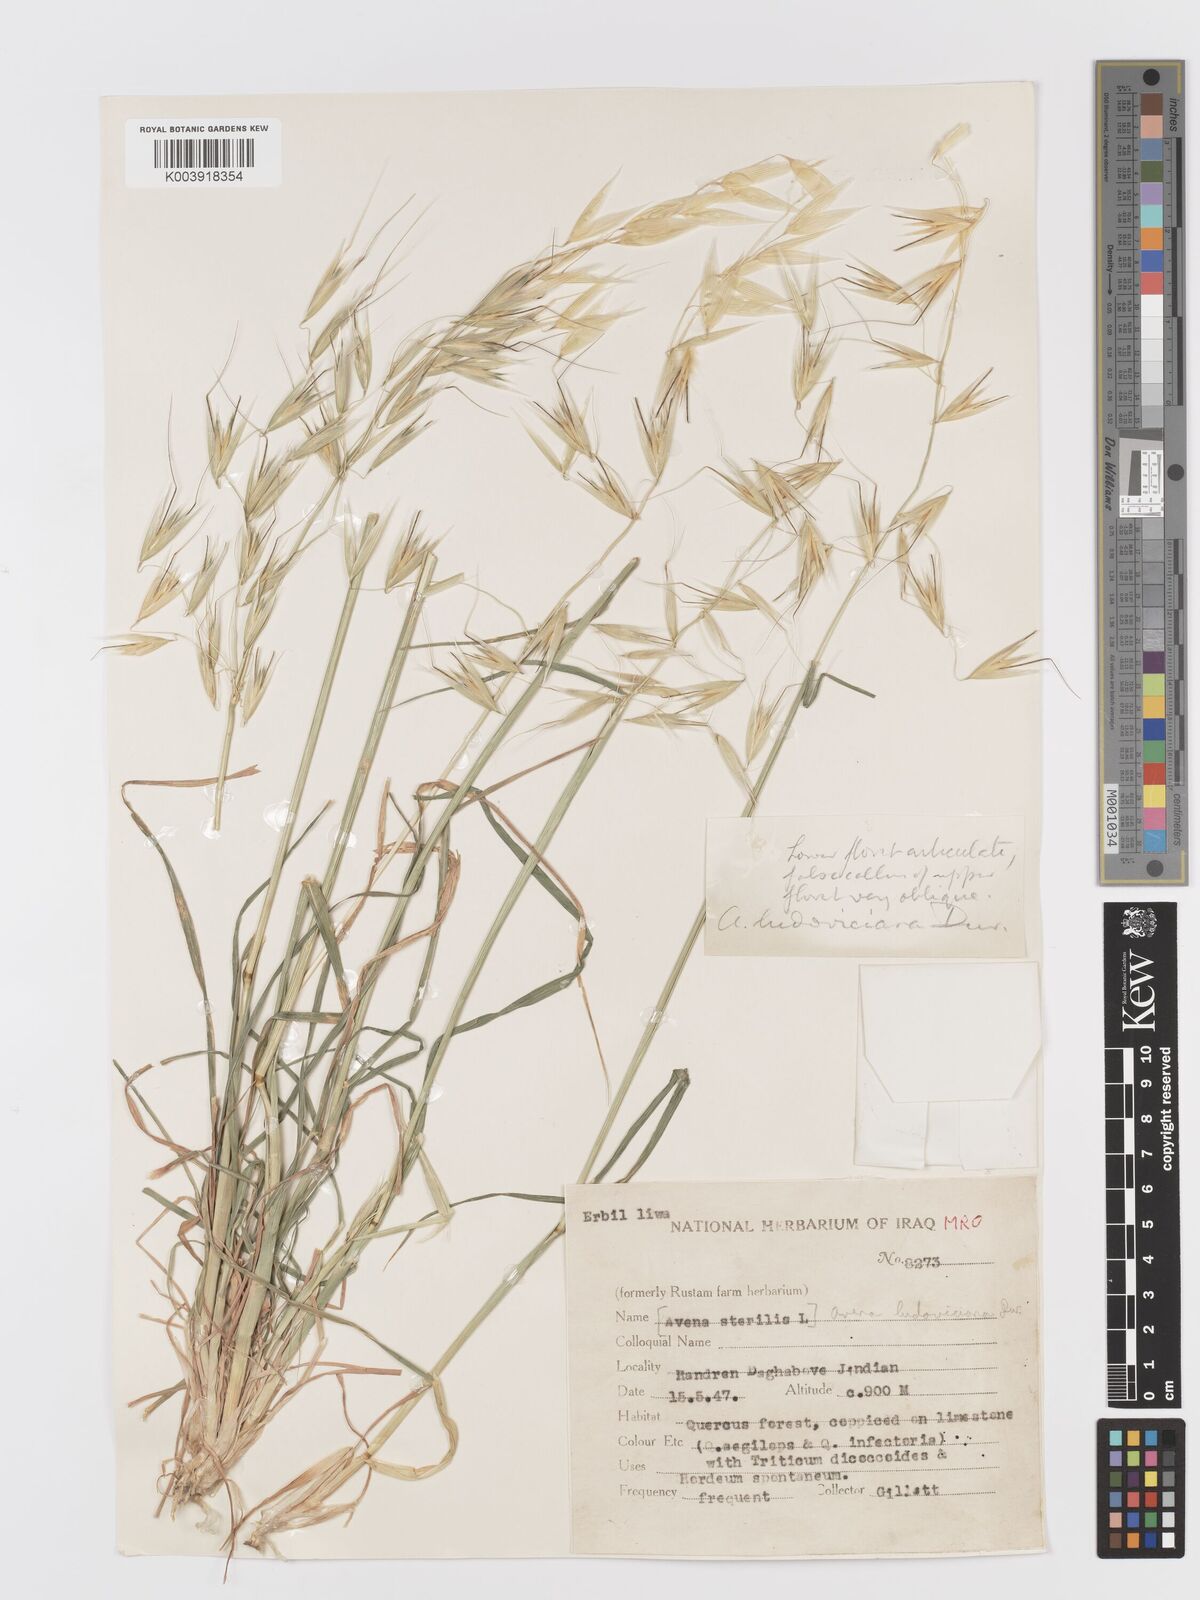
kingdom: Plantae
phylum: Tracheophyta
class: Liliopsida
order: Poales
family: Poaceae
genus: Avena
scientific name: Avena sterilis
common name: Animated oat
